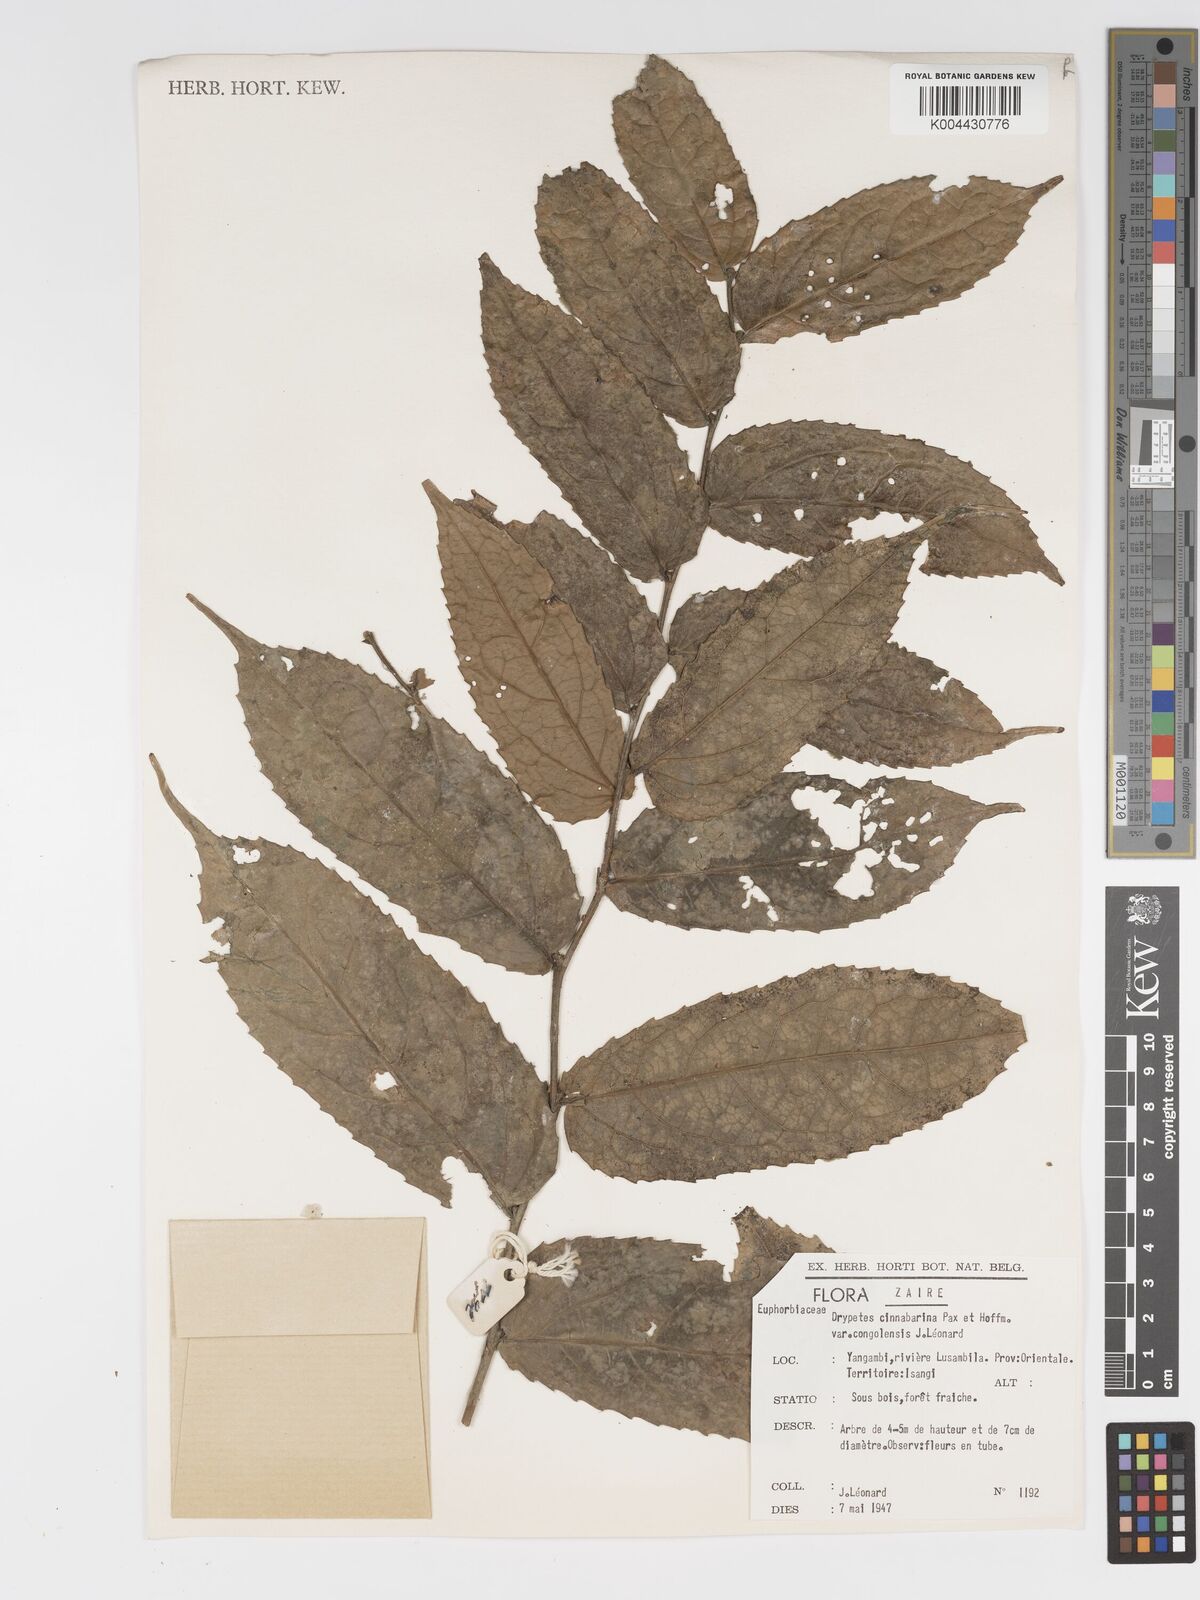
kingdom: Plantae
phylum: Tracheophyta
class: Magnoliopsida
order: Malpighiales
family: Putranjivaceae
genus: Drypetes
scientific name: Drypetes cinnabarina
